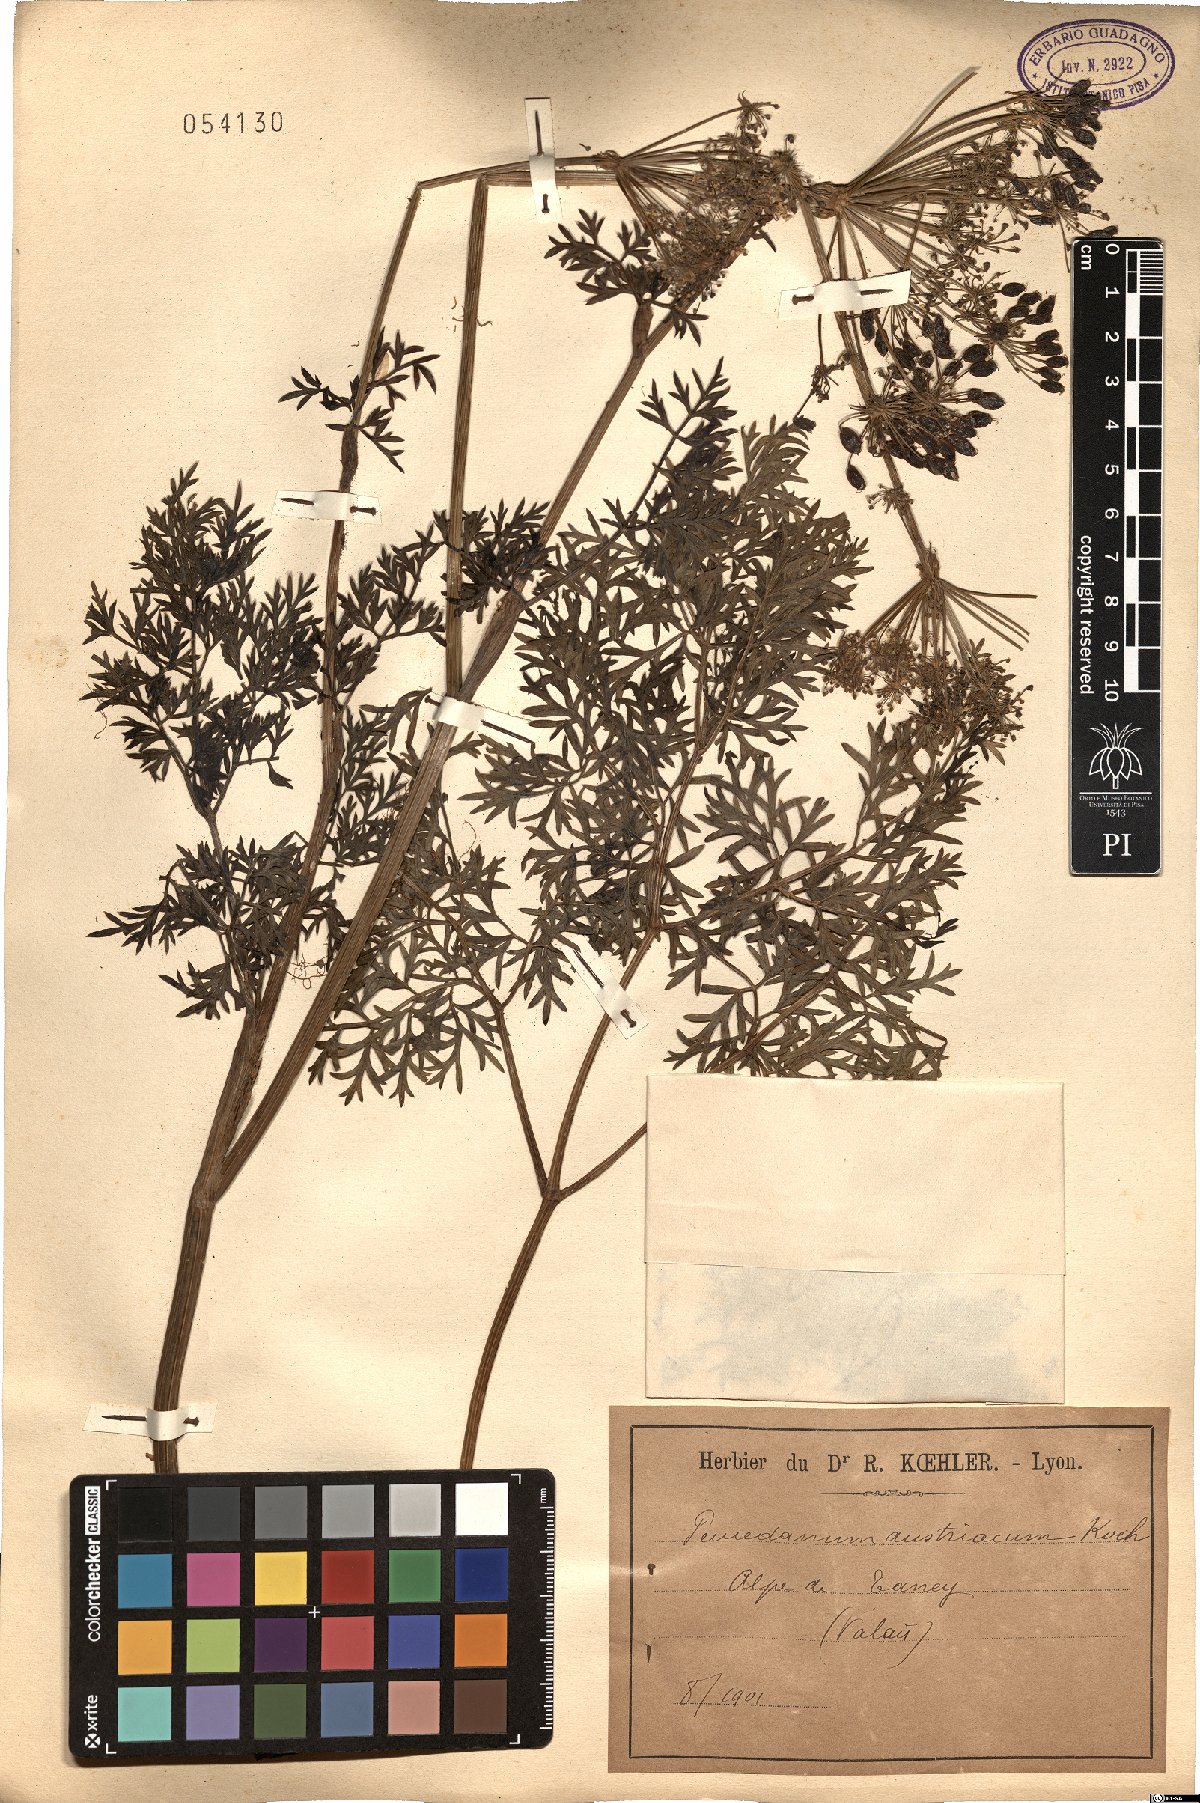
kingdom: Plantae
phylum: Tracheophyta
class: Magnoliopsida
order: Apiales
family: Apiaceae
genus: Peucedanum
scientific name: Peucedanum austriacum
